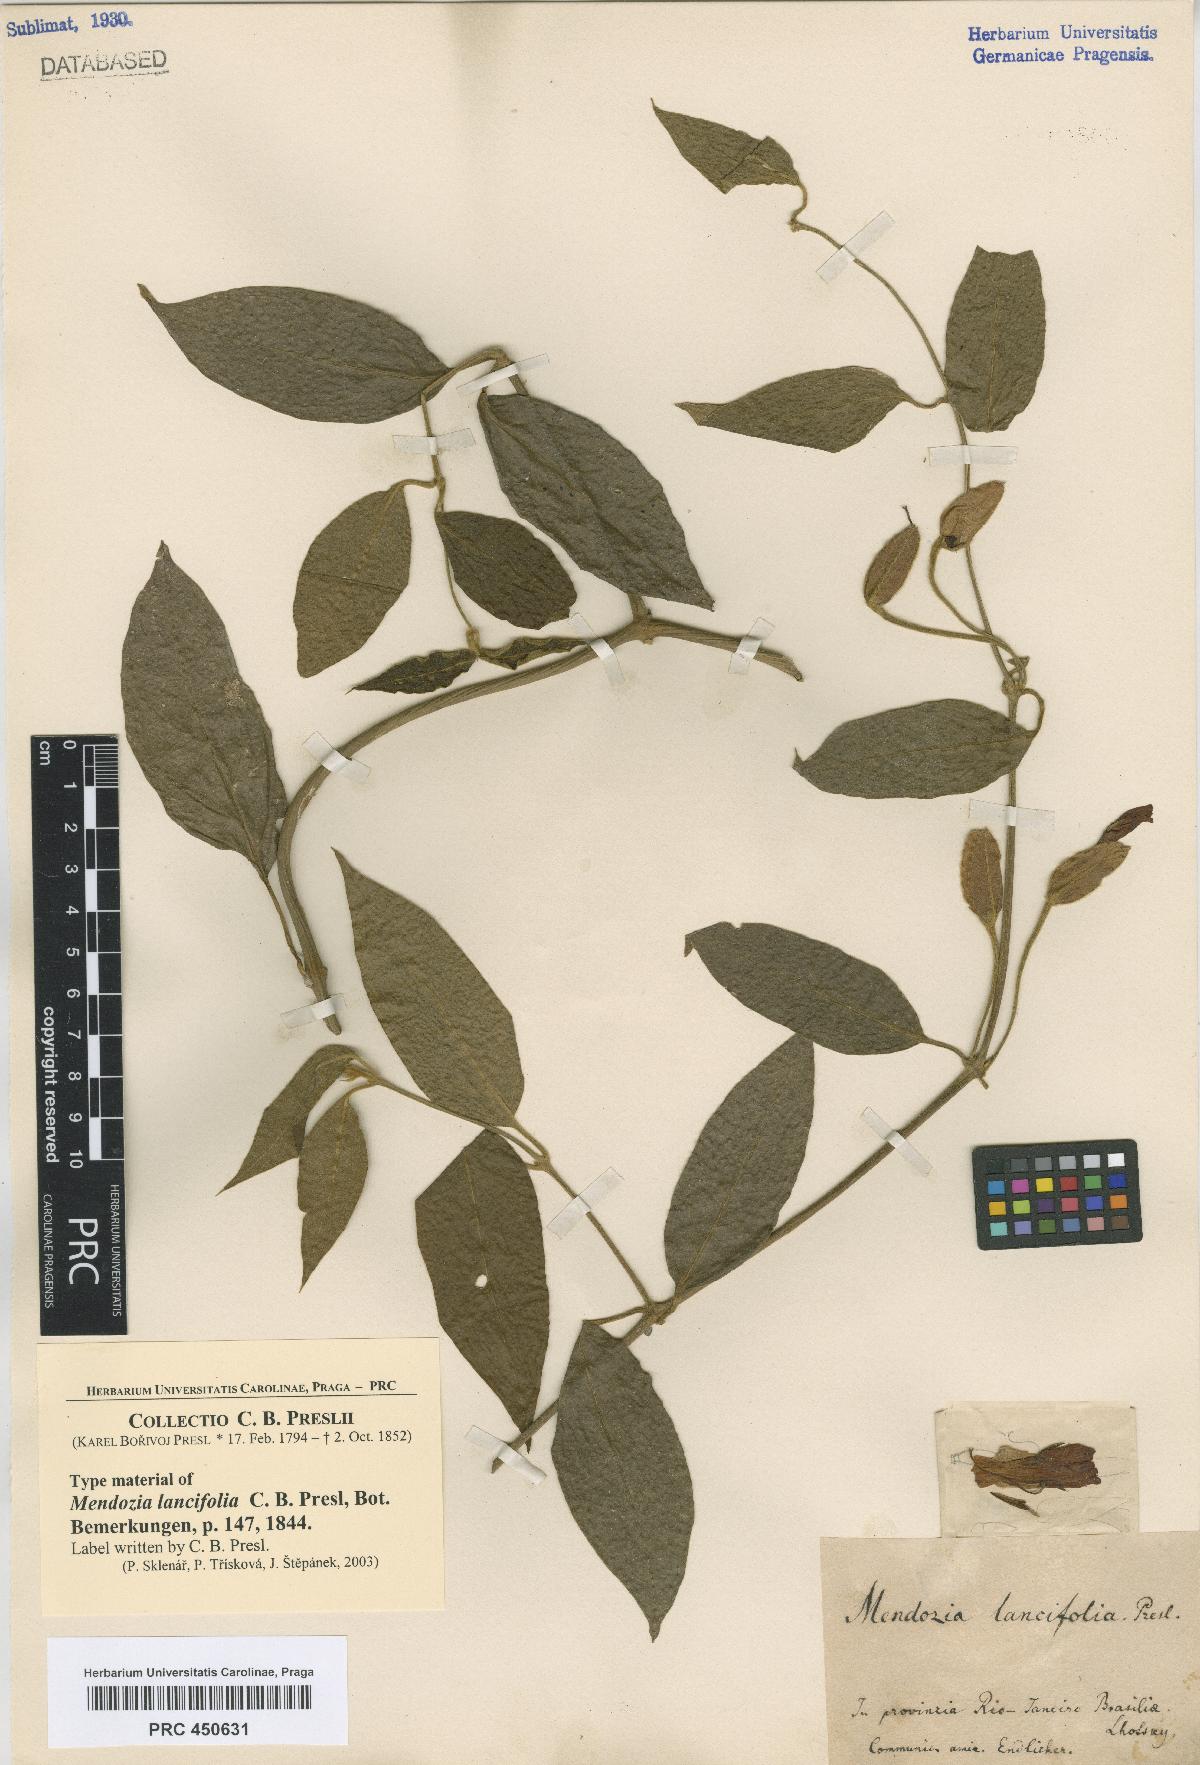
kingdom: Plantae
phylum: Tracheophyta
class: Magnoliopsida
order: Lamiales
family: Acanthaceae
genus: Mendoncia
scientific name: Mendoncia
